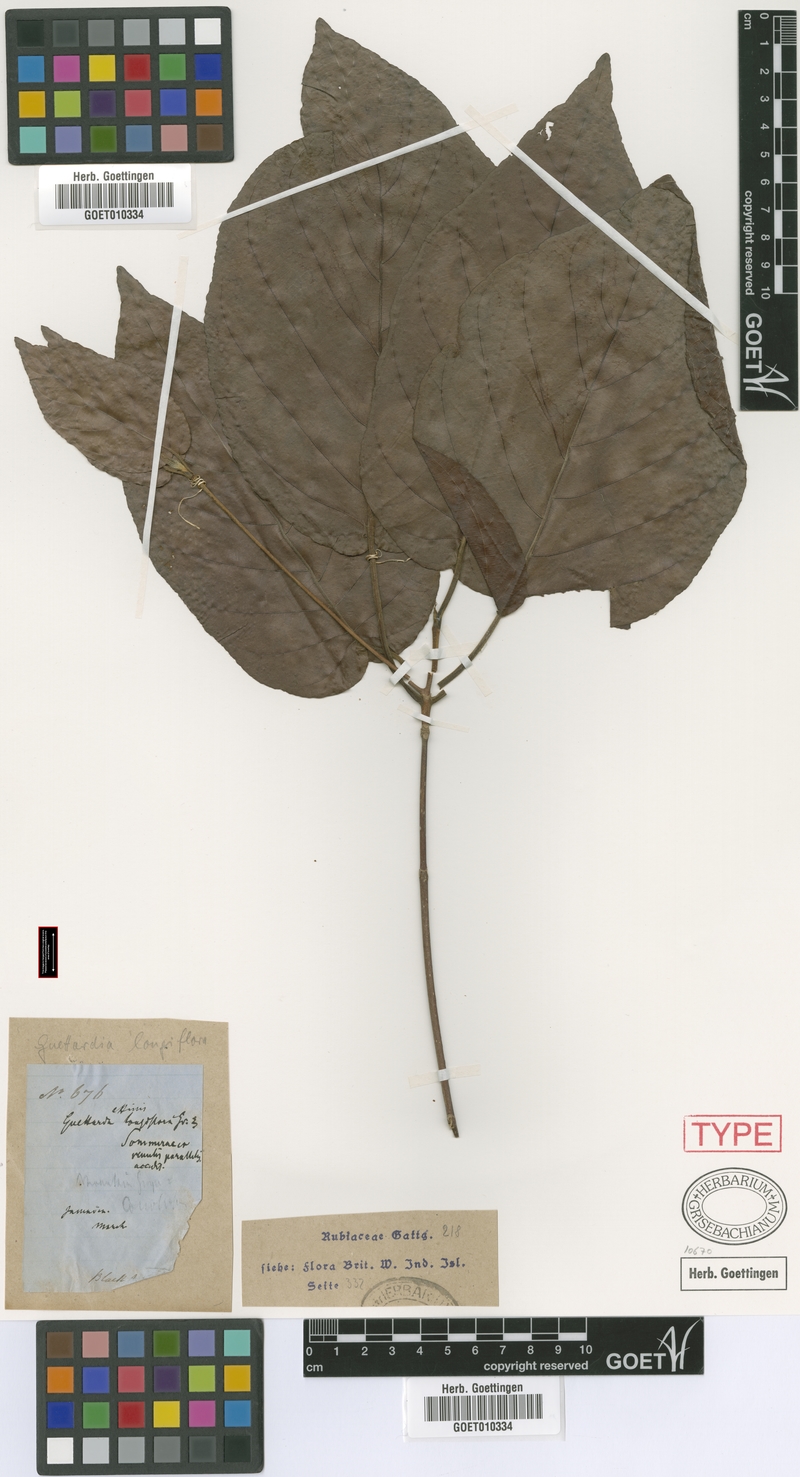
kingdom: Plantae
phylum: Tracheophyta
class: Magnoliopsida
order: Gentianales
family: Rubiaceae
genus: Guettarda
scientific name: Guettarda longiflora
